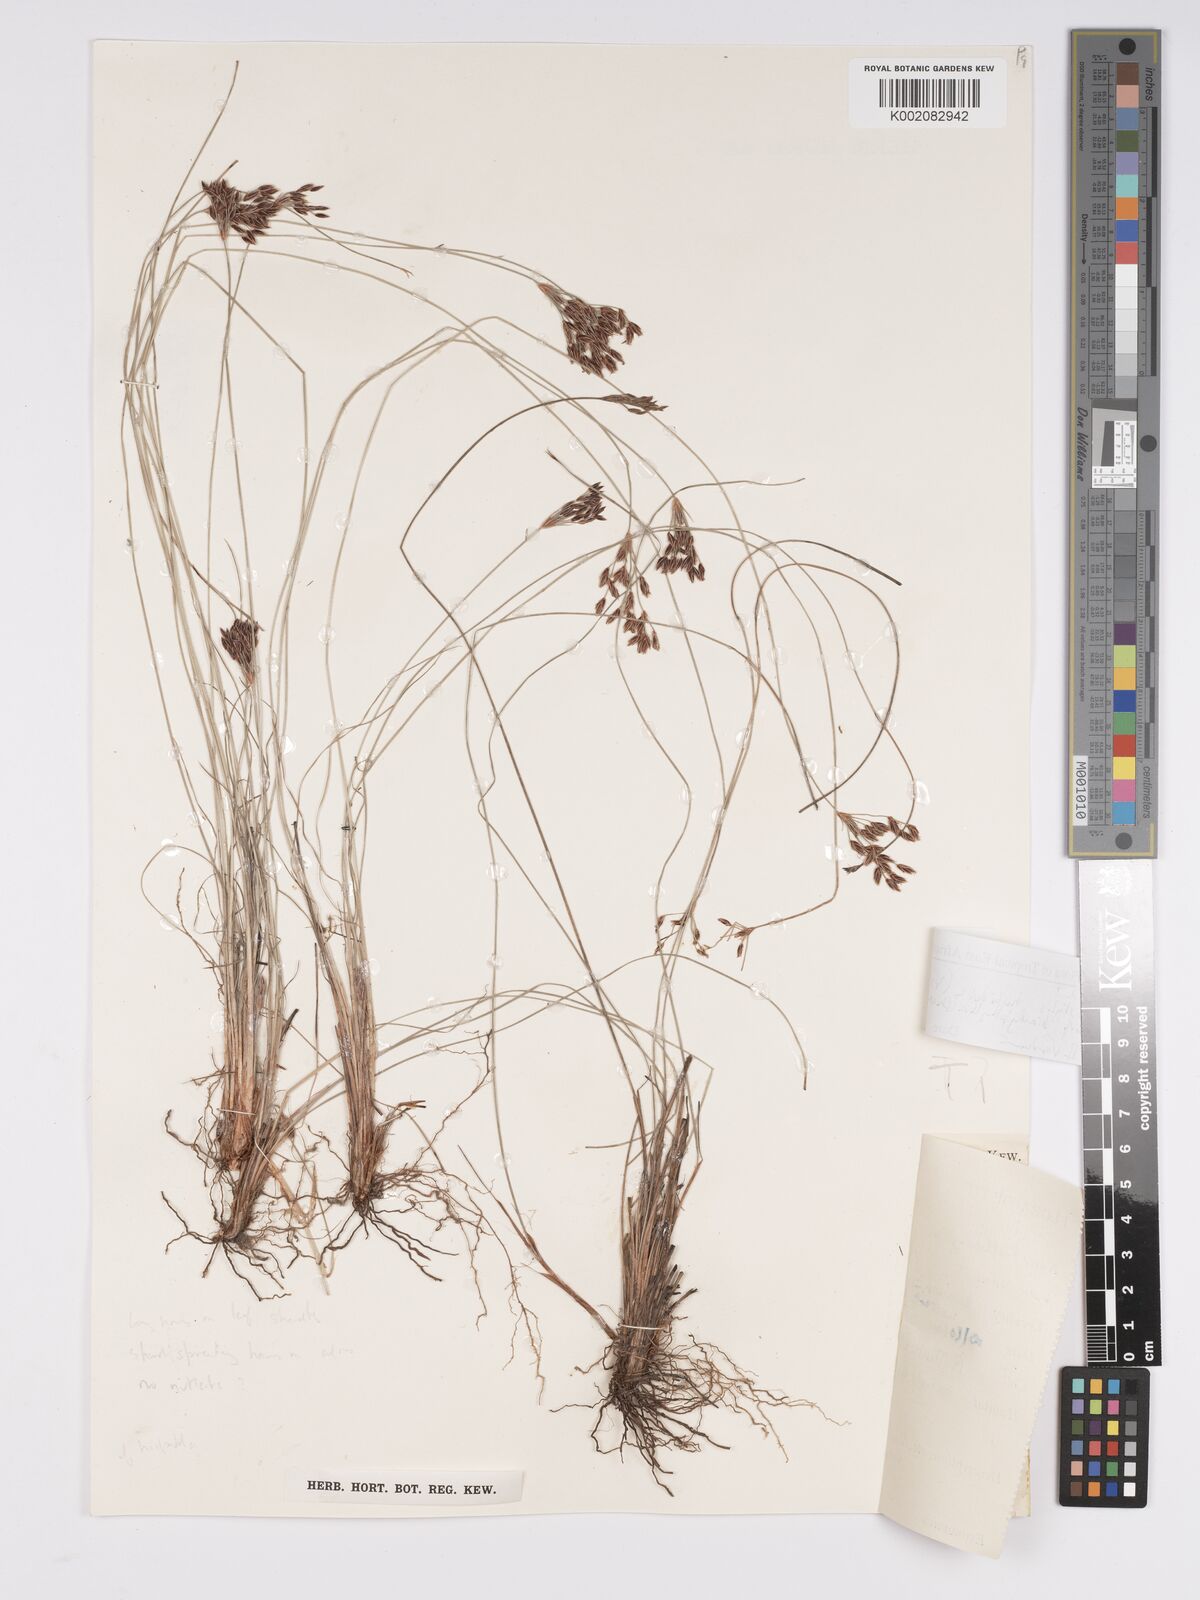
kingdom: Plantae
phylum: Tracheophyta
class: Liliopsida
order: Poales
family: Cyperaceae
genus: Bulbostylis
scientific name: Bulbostylis hispidula
